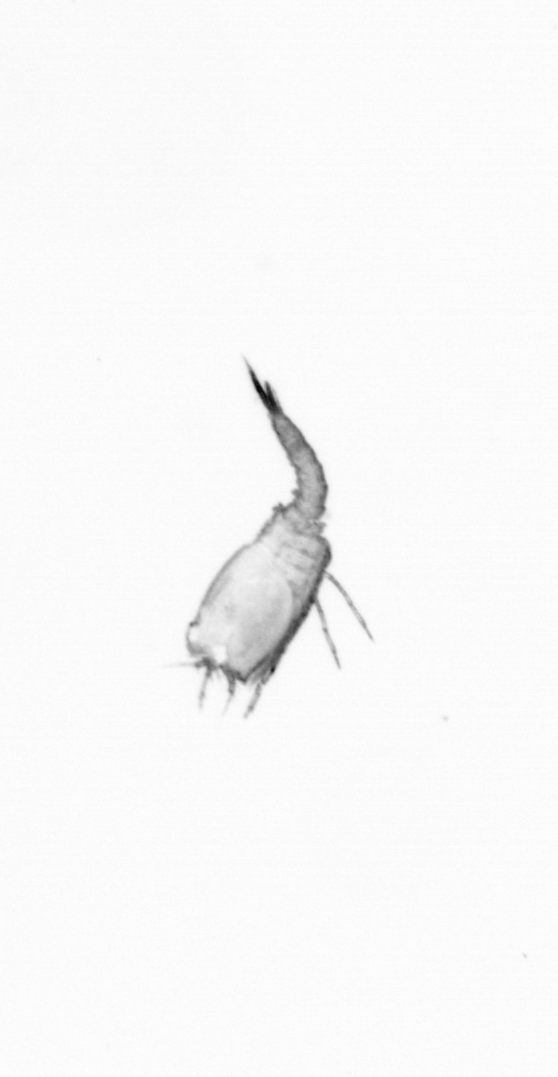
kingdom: Animalia
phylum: Arthropoda
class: Copepoda
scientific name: Copepoda
